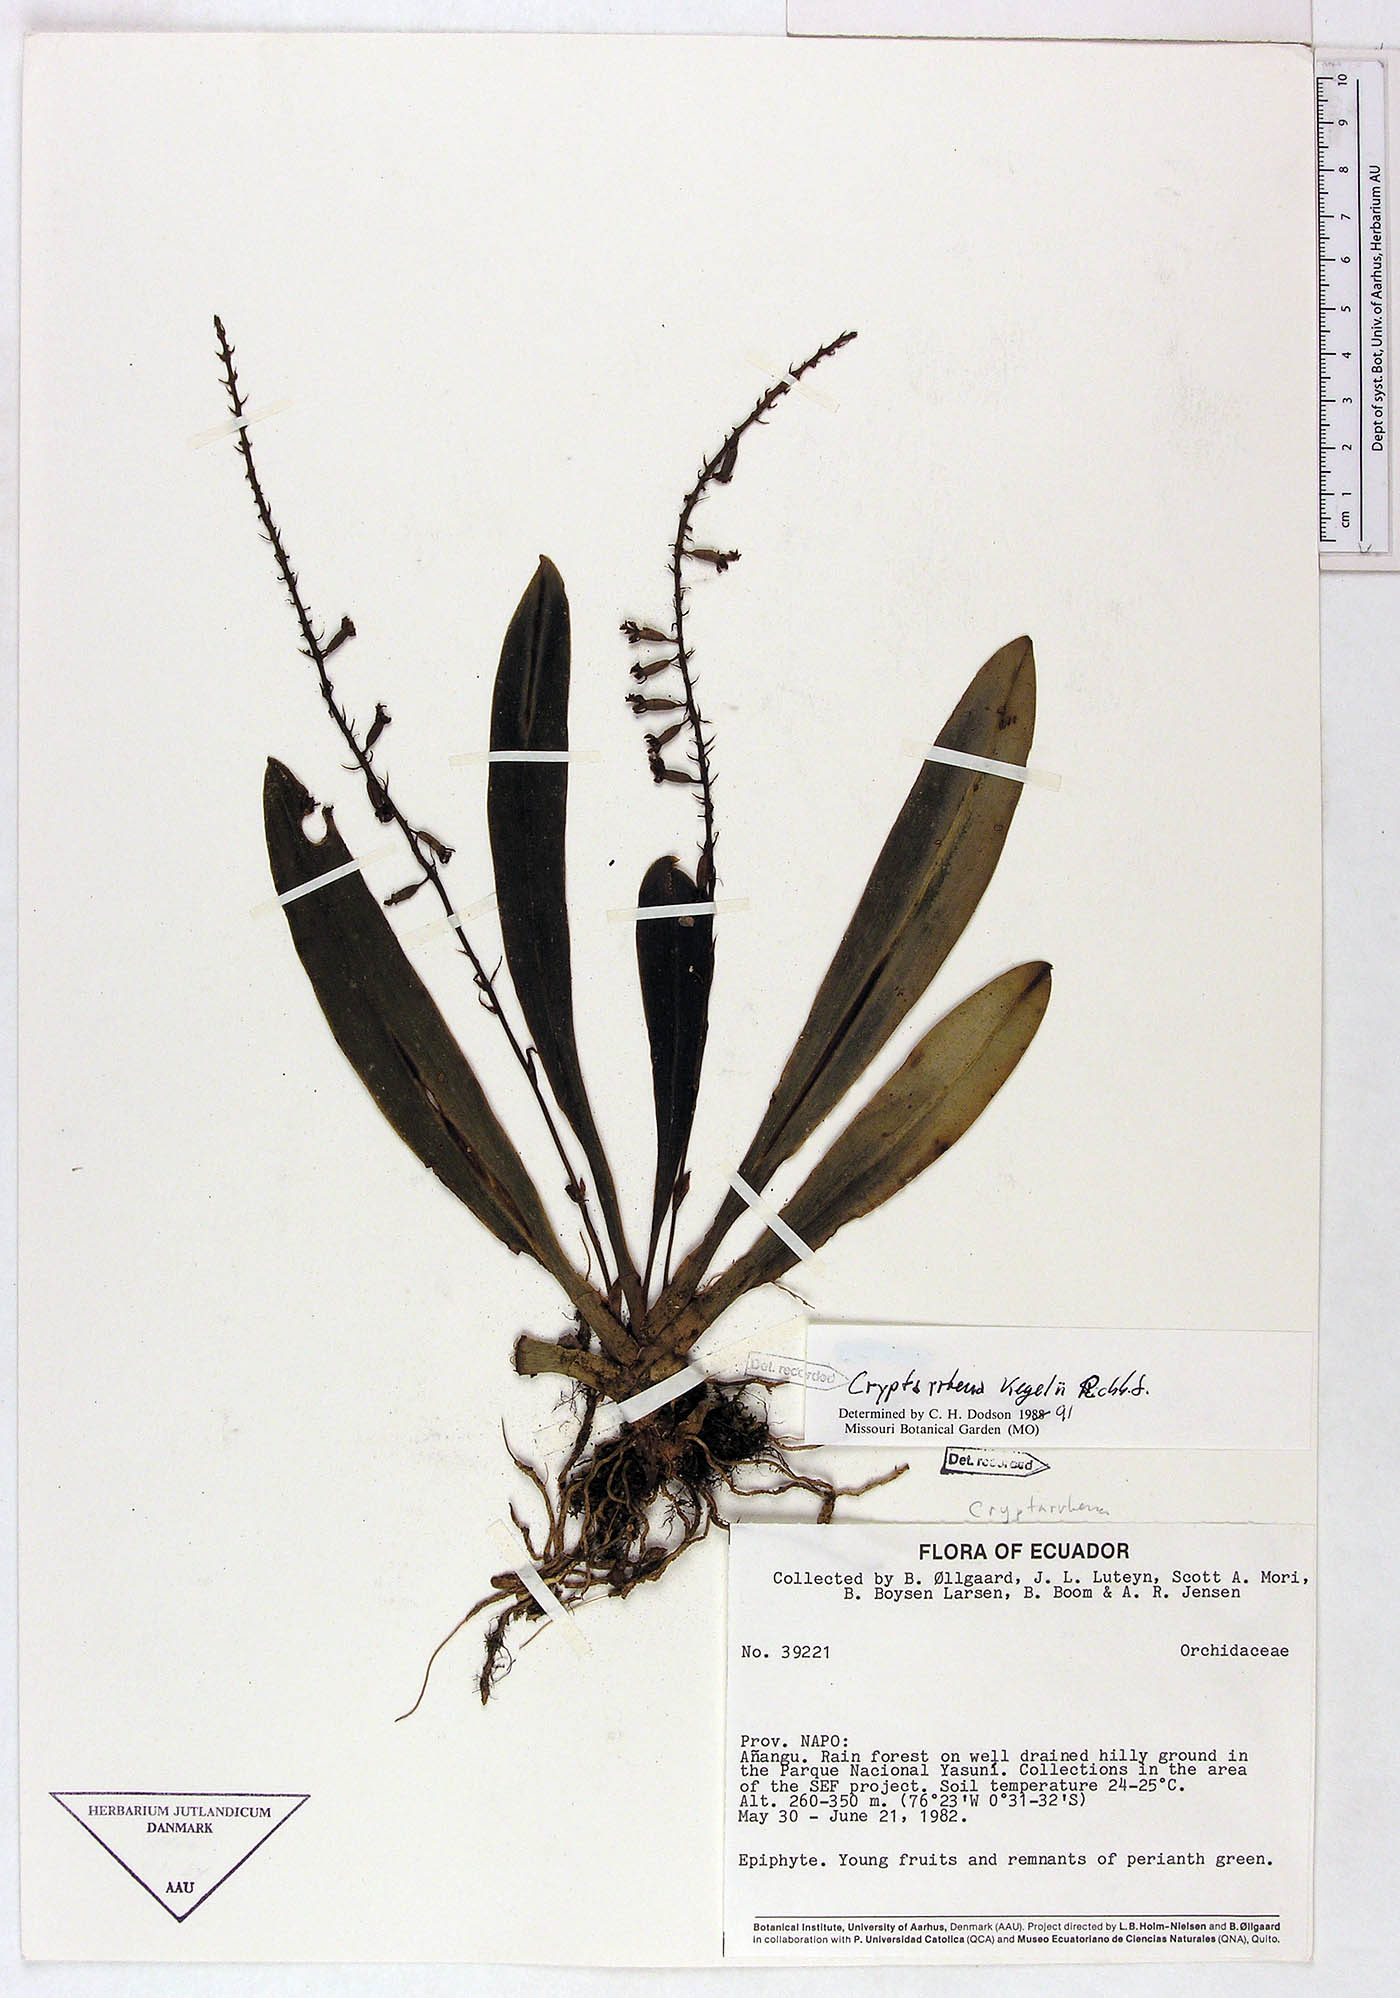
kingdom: Plantae
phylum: Tracheophyta
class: Liliopsida
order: Asparagales
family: Orchidaceae
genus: Cryptarrhena
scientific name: Cryptarrhena kegelii
